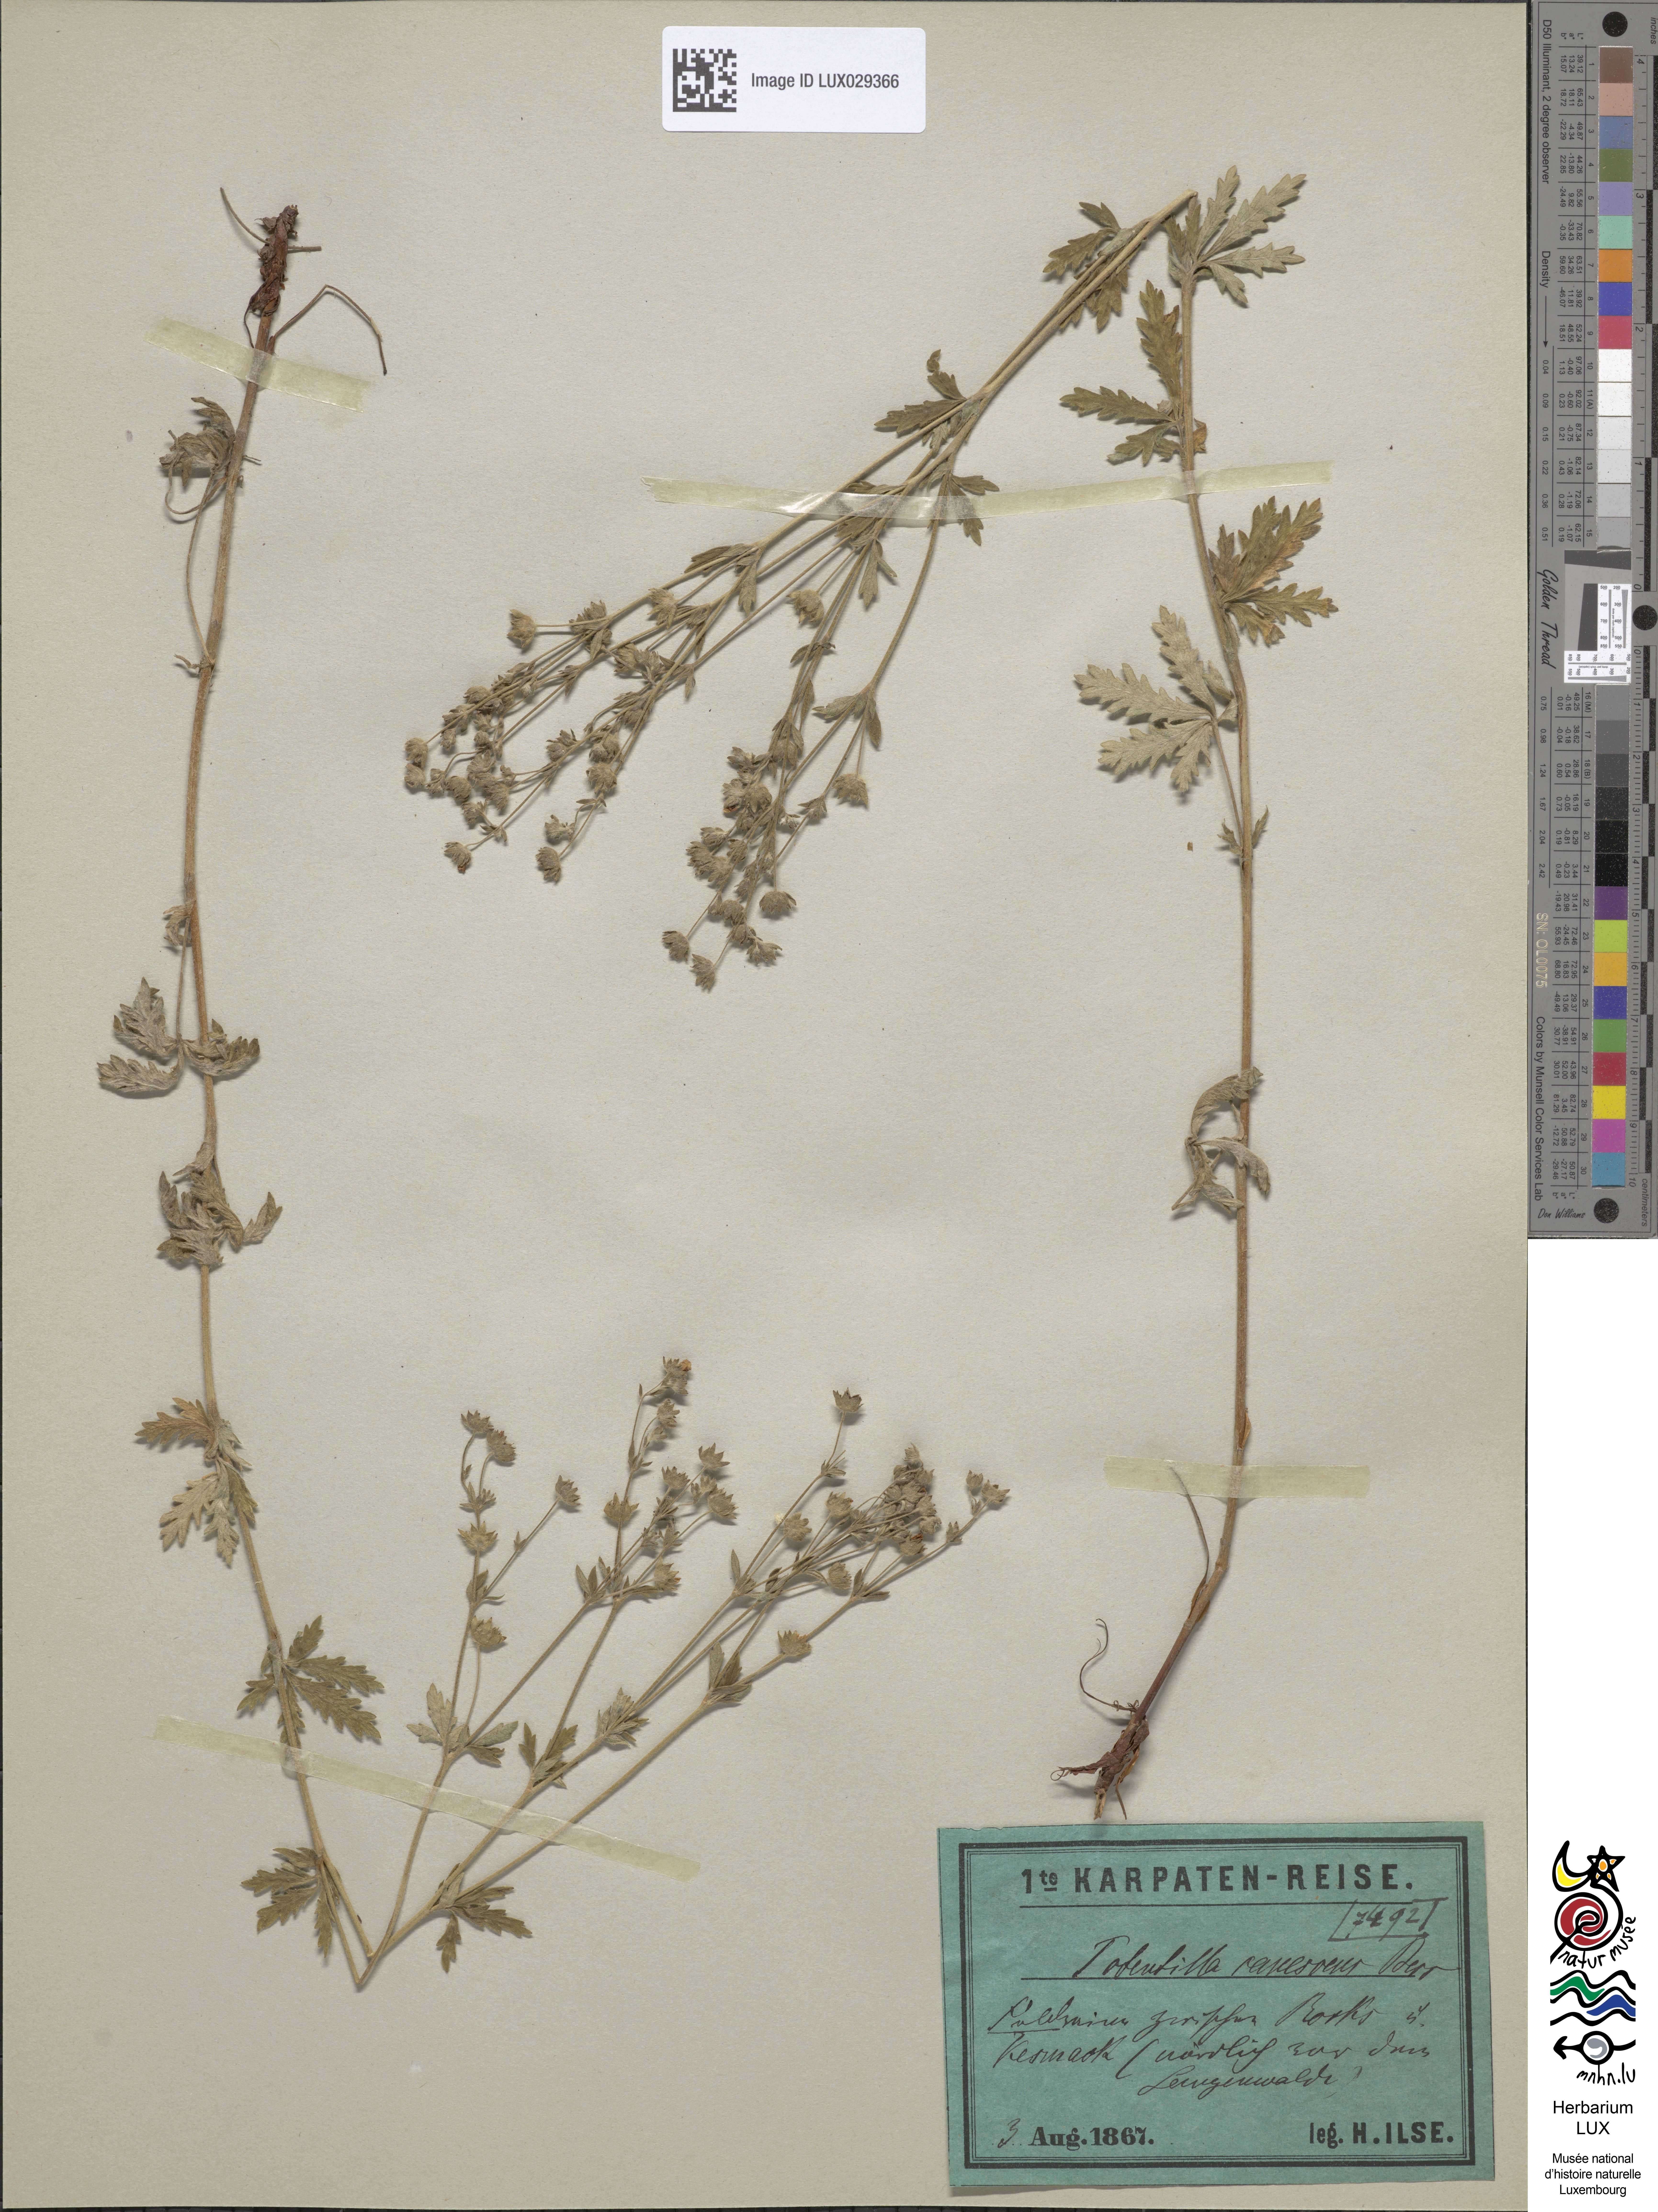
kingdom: Plantae
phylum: Tracheophyta
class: Magnoliopsida
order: Rosales
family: Rosaceae
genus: Potentilla
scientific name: Potentilla inclinata
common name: Grey cinquefoil
